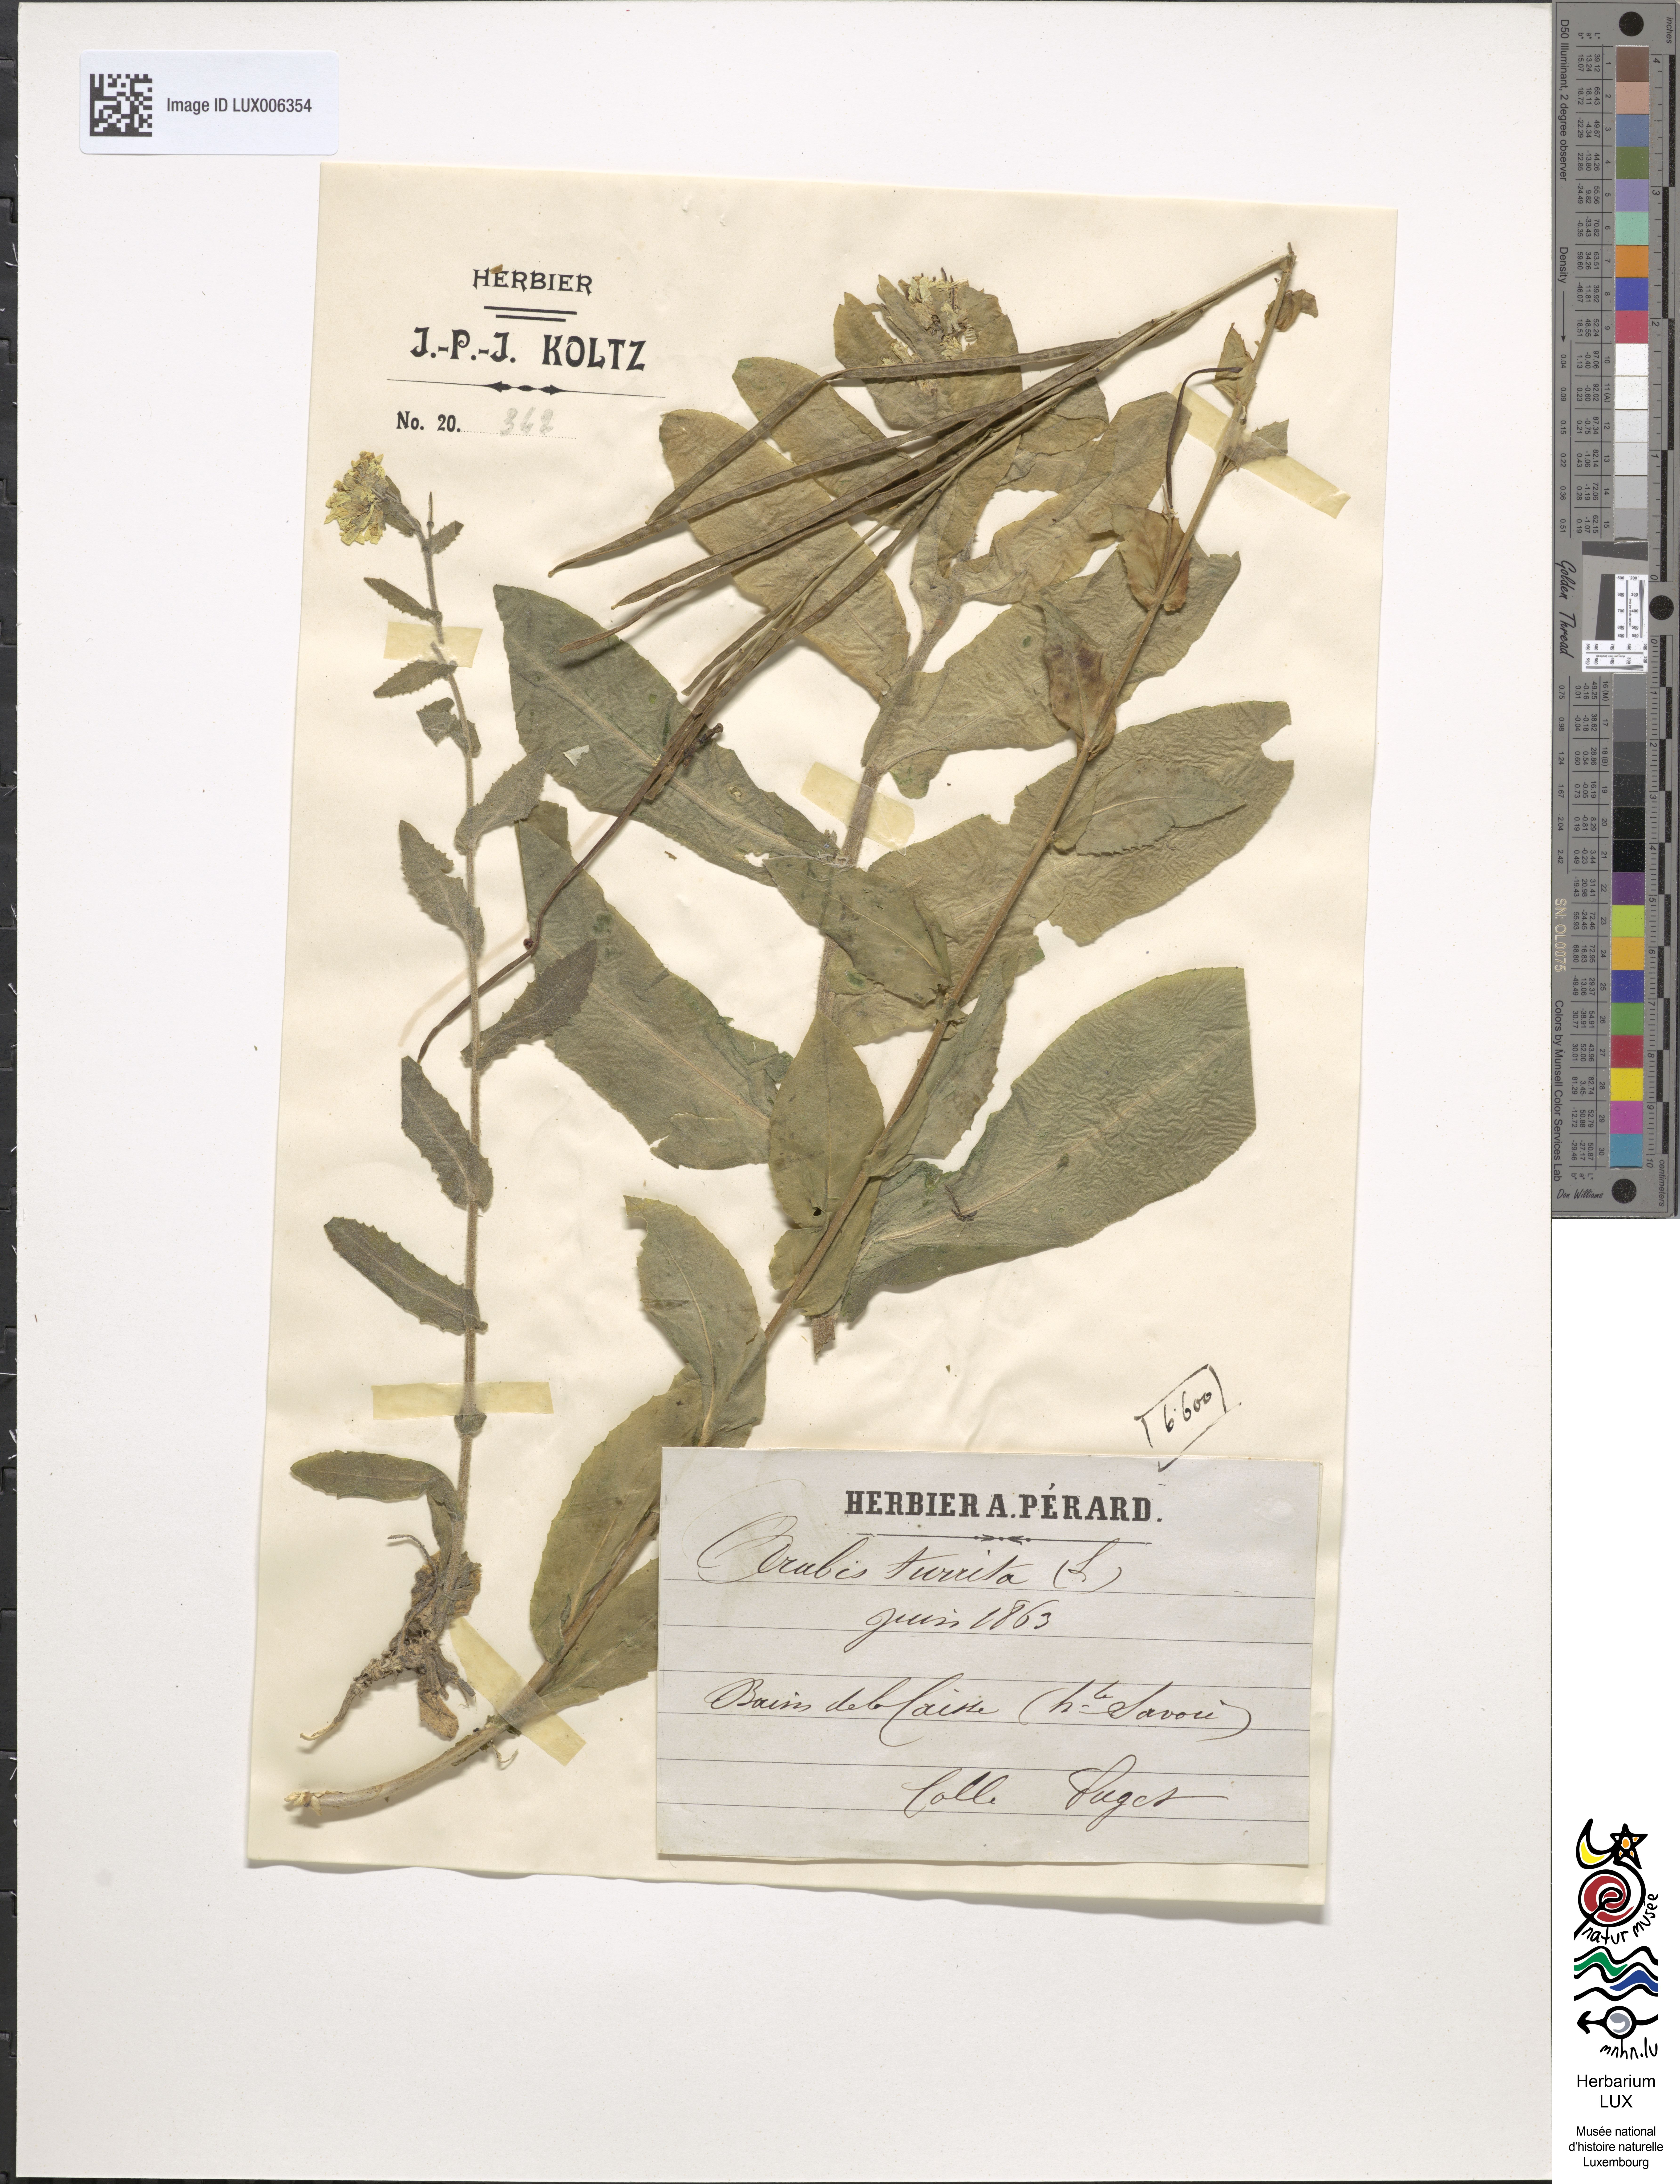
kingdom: Plantae
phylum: Tracheophyta
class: Magnoliopsida
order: Brassicales
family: Brassicaceae
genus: Pseudoturritis
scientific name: Pseudoturritis turrita
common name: Tower cress
